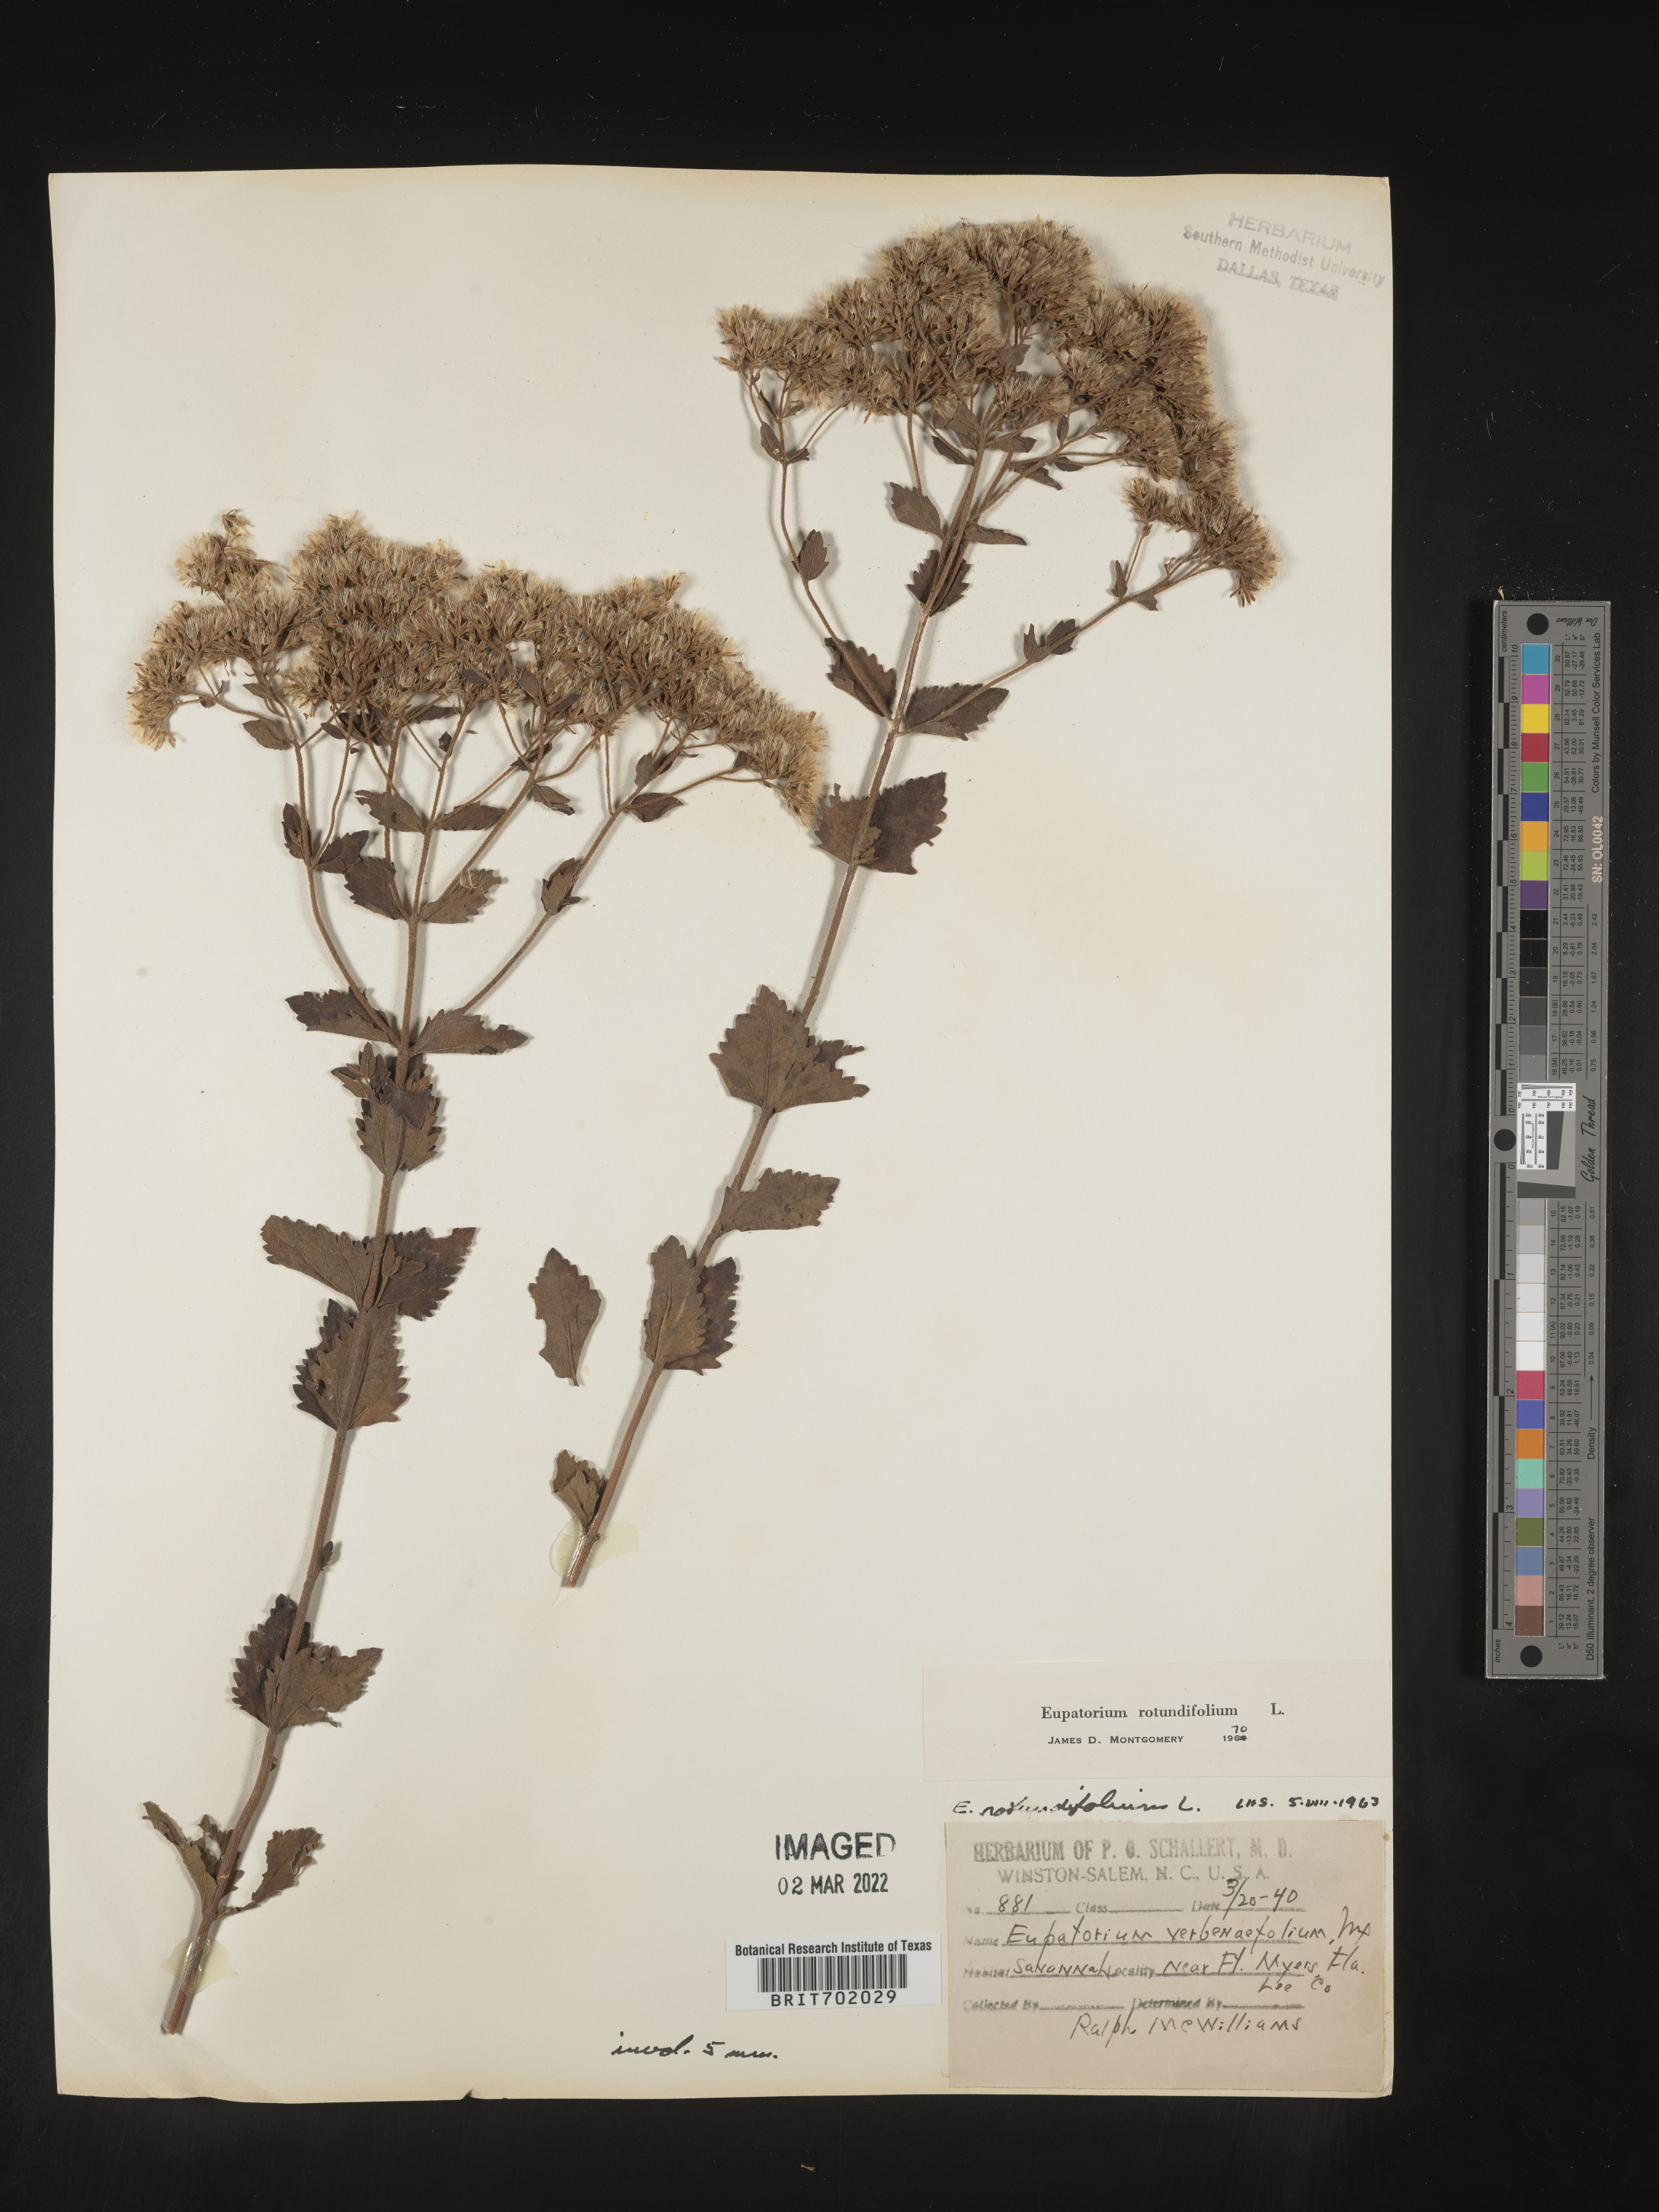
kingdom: Plantae
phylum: Tracheophyta
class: Magnoliopsida
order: Asterales
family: Asteraceae
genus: Eupatorium
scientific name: Eupatorium rotundifolium
